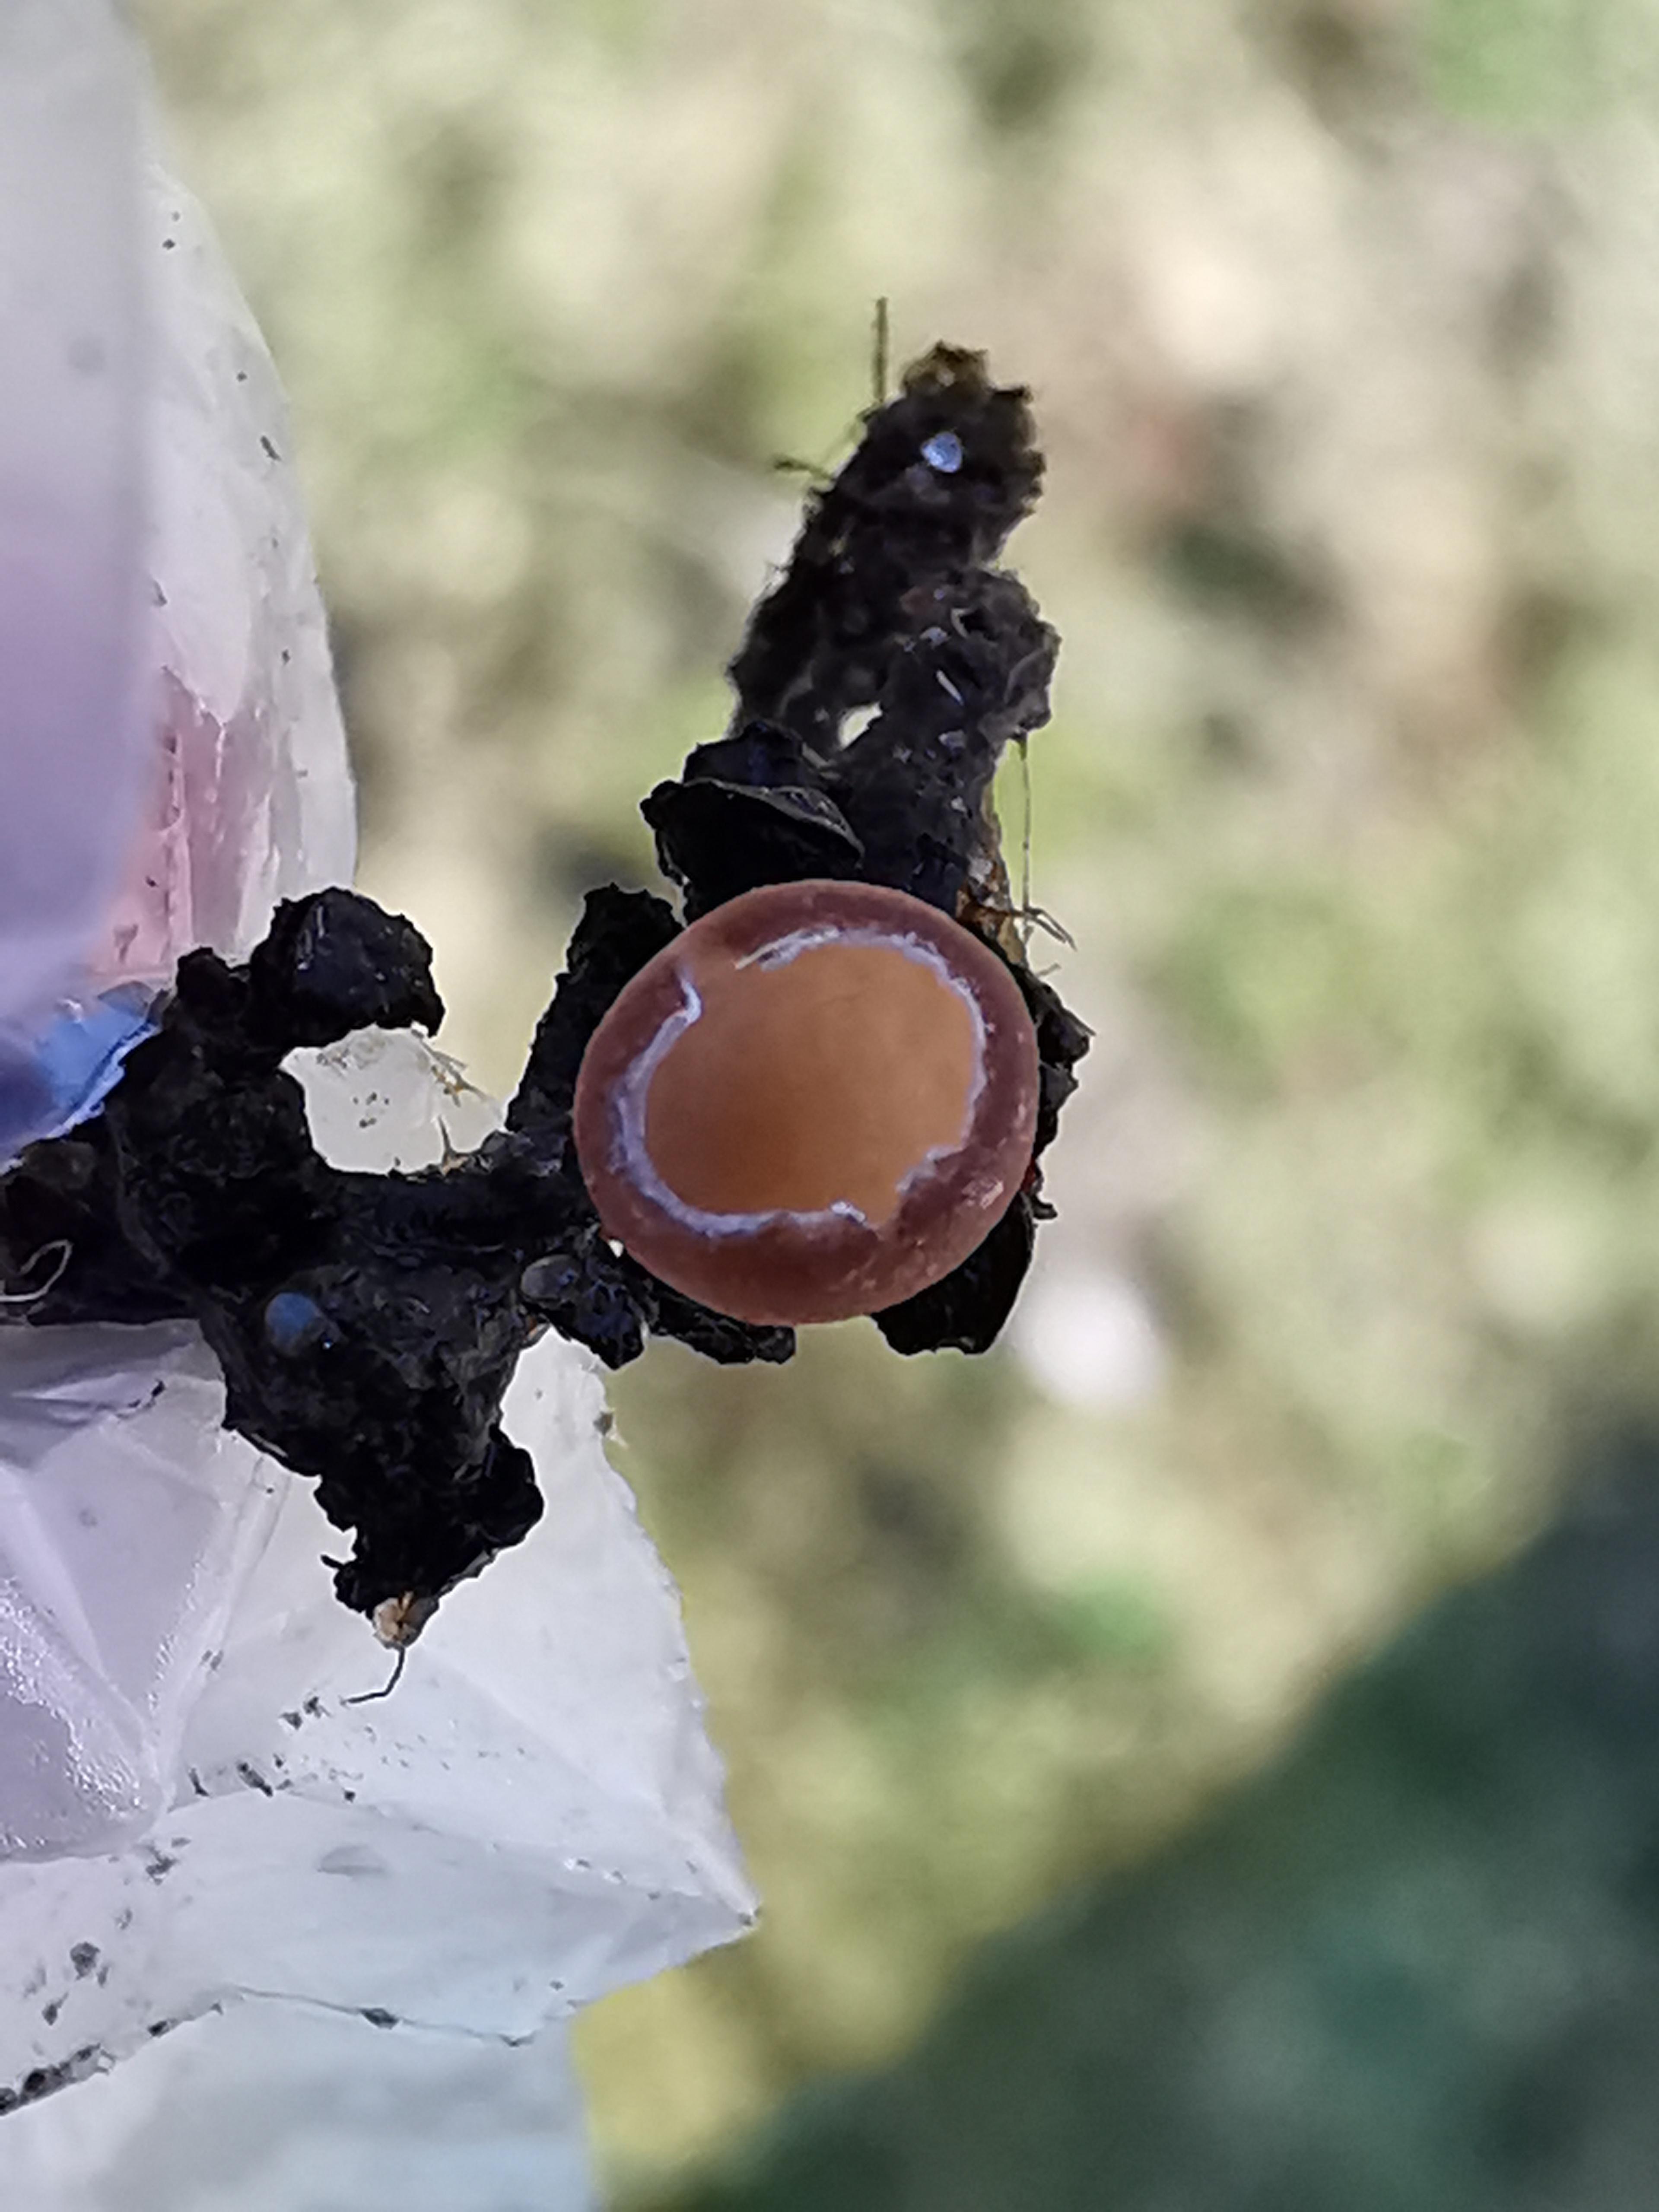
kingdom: Fungi
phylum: Ascomycota
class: Leotiomycetes
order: Helotiales
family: Sclerotiniaceae
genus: Ciboria
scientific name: Ciboria amentacea
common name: ellerakle-knoldskive
